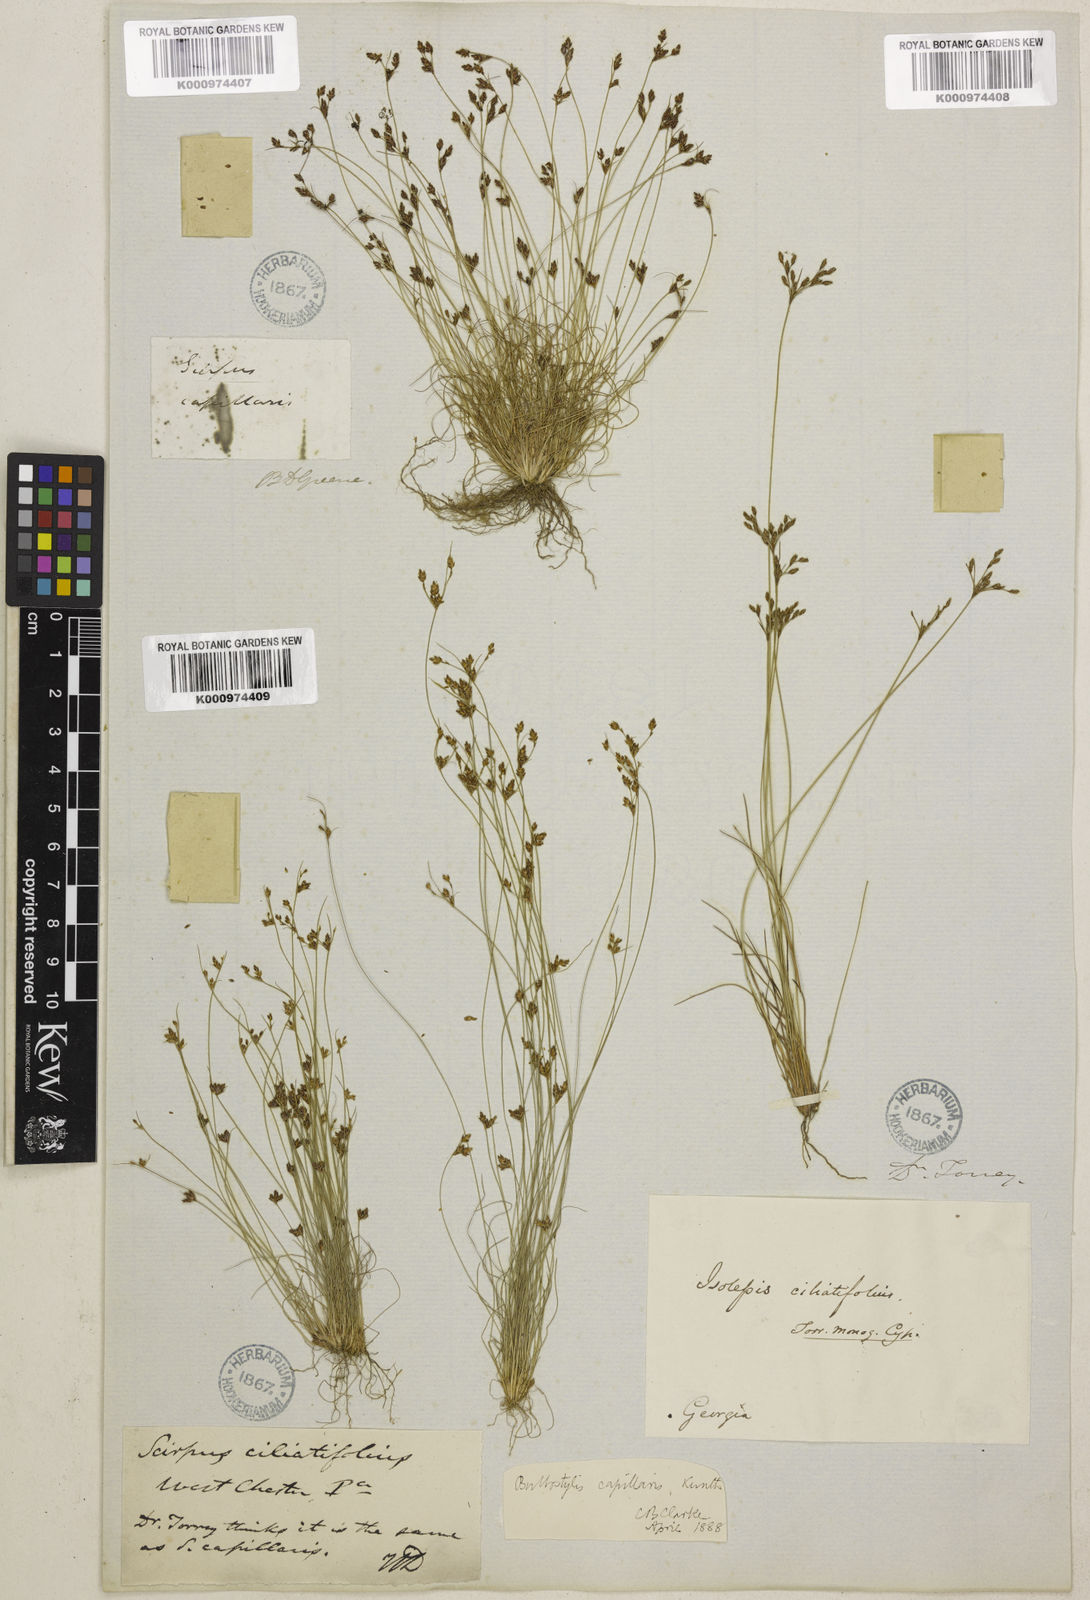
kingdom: Plantae
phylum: Tracheophyta
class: Liliopsida
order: Poales
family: Cyperaceae
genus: Bulbostylis
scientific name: Bulbostylis ciliatifolia
